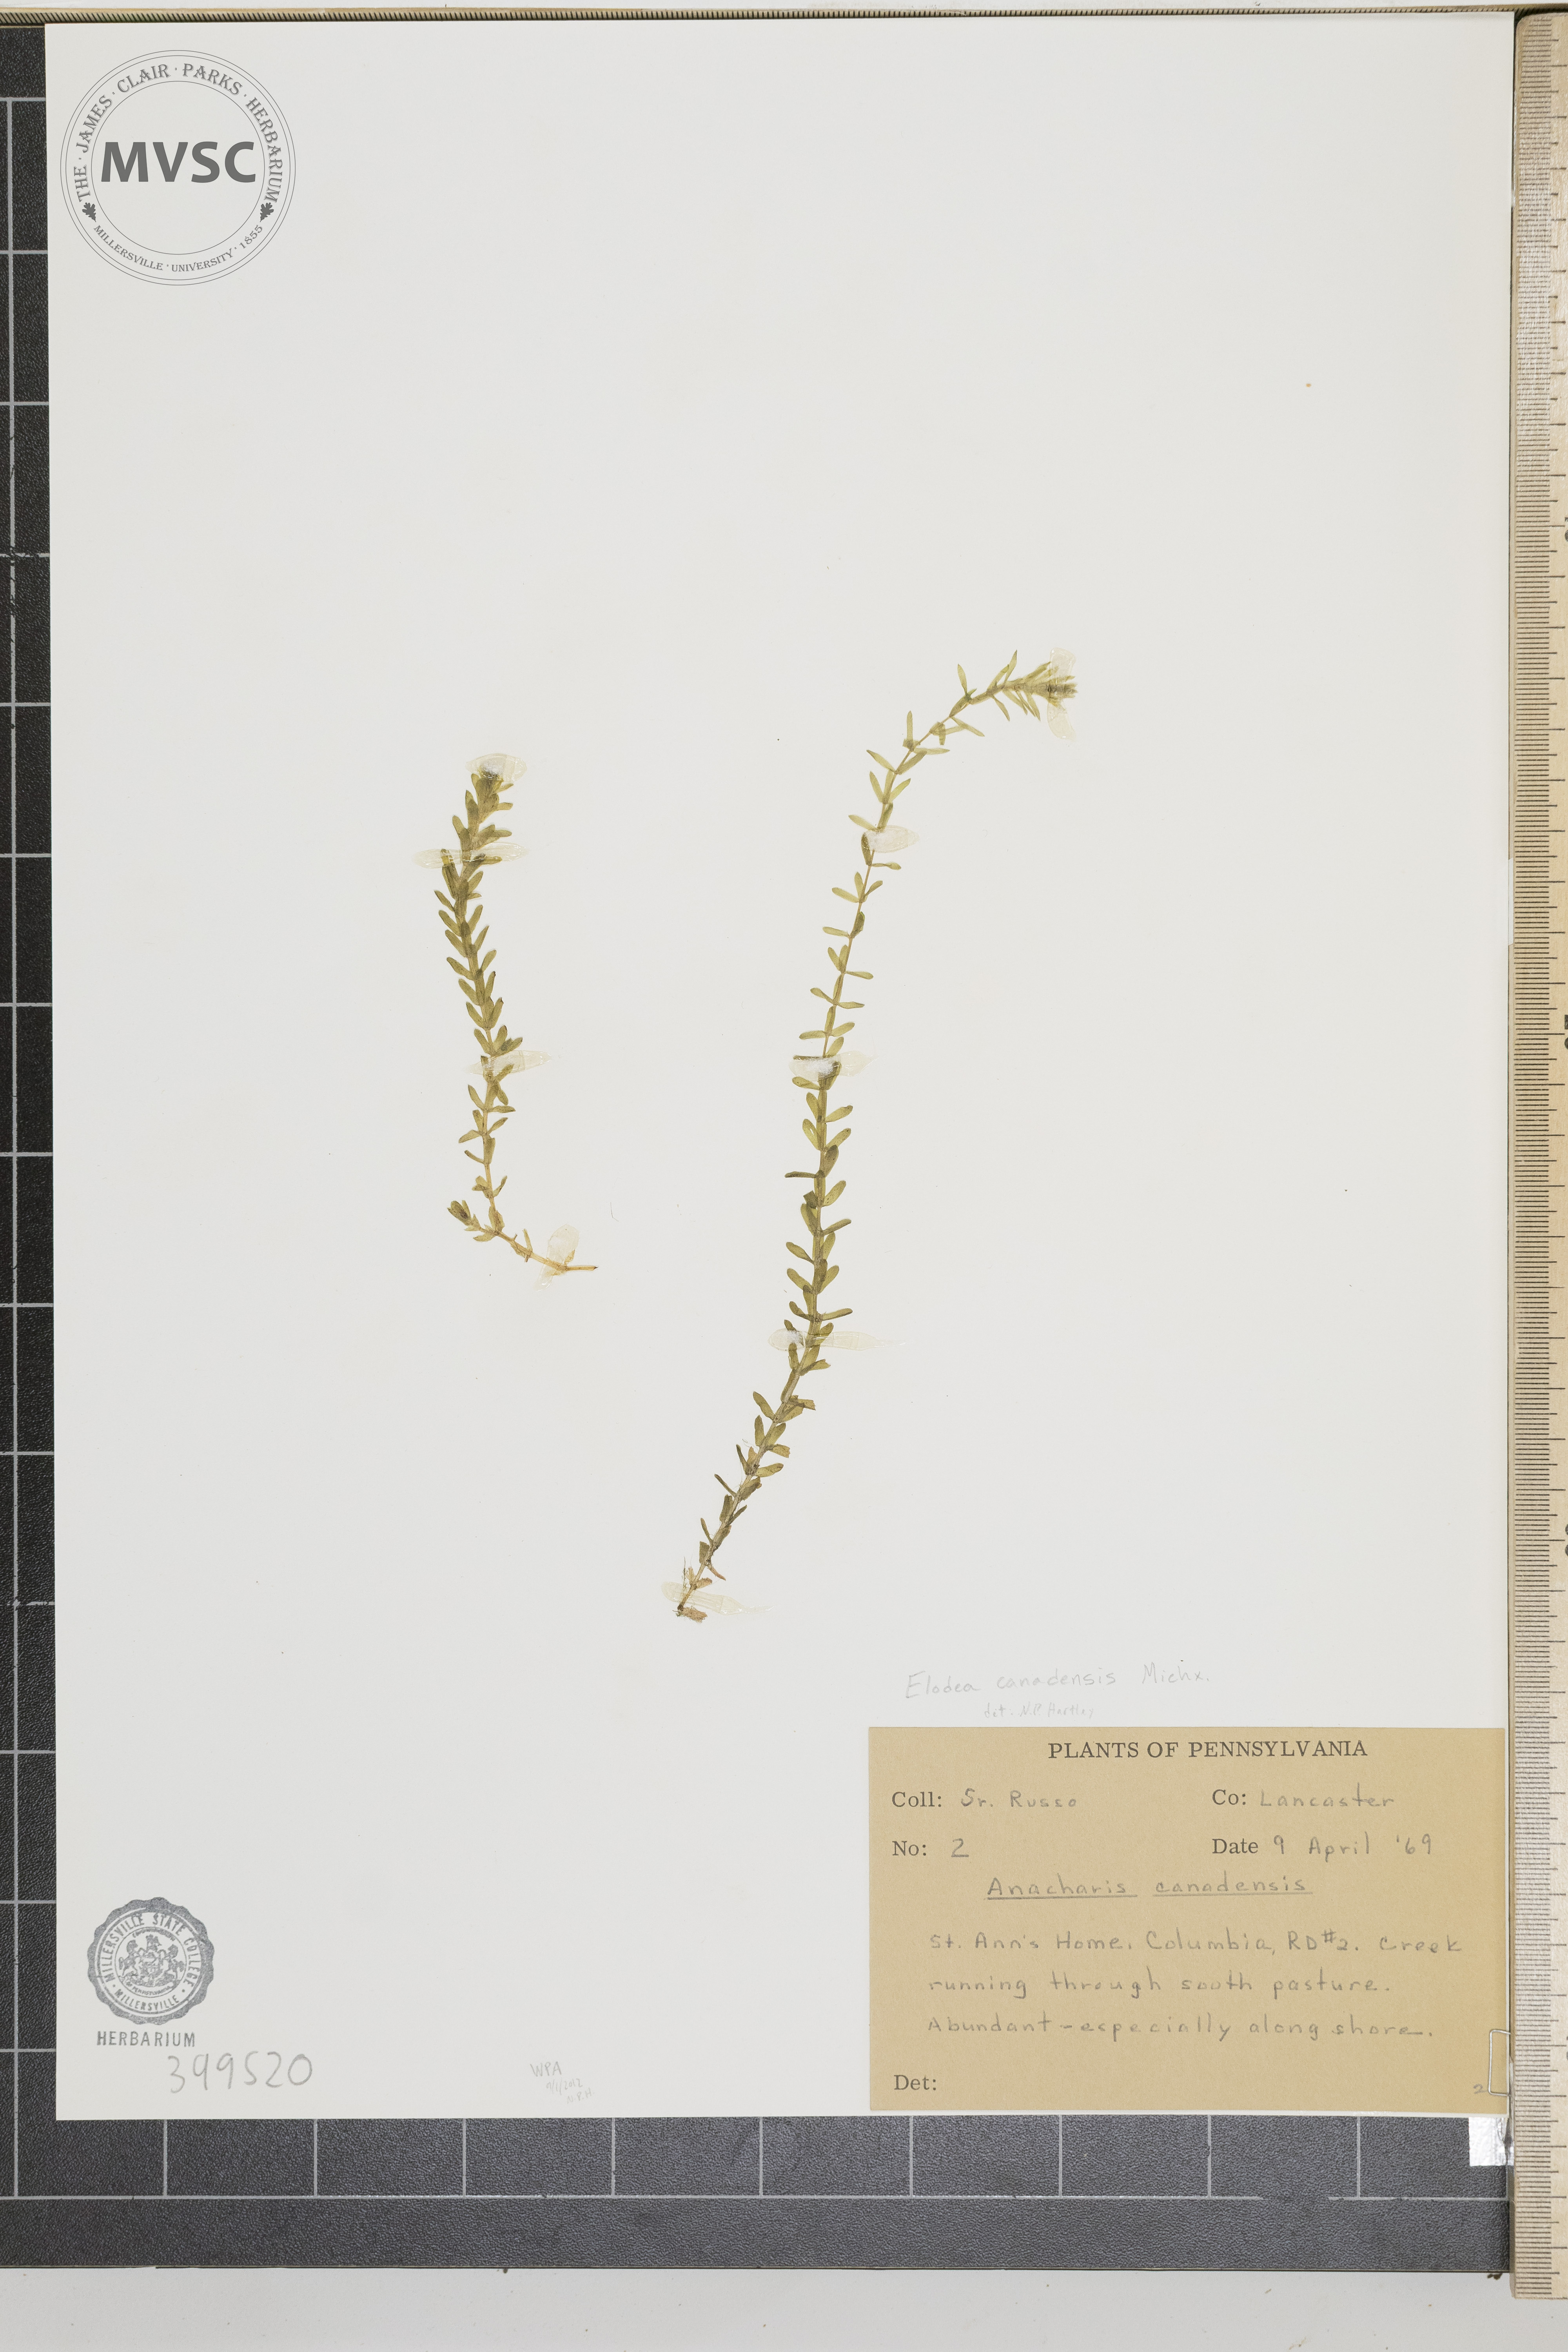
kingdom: Plantae
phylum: Tracheophyta
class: Liliopsida
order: Alismatales
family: Hydrocharitaceae
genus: Elodea
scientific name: Elodea canadensis
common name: common waterweed
